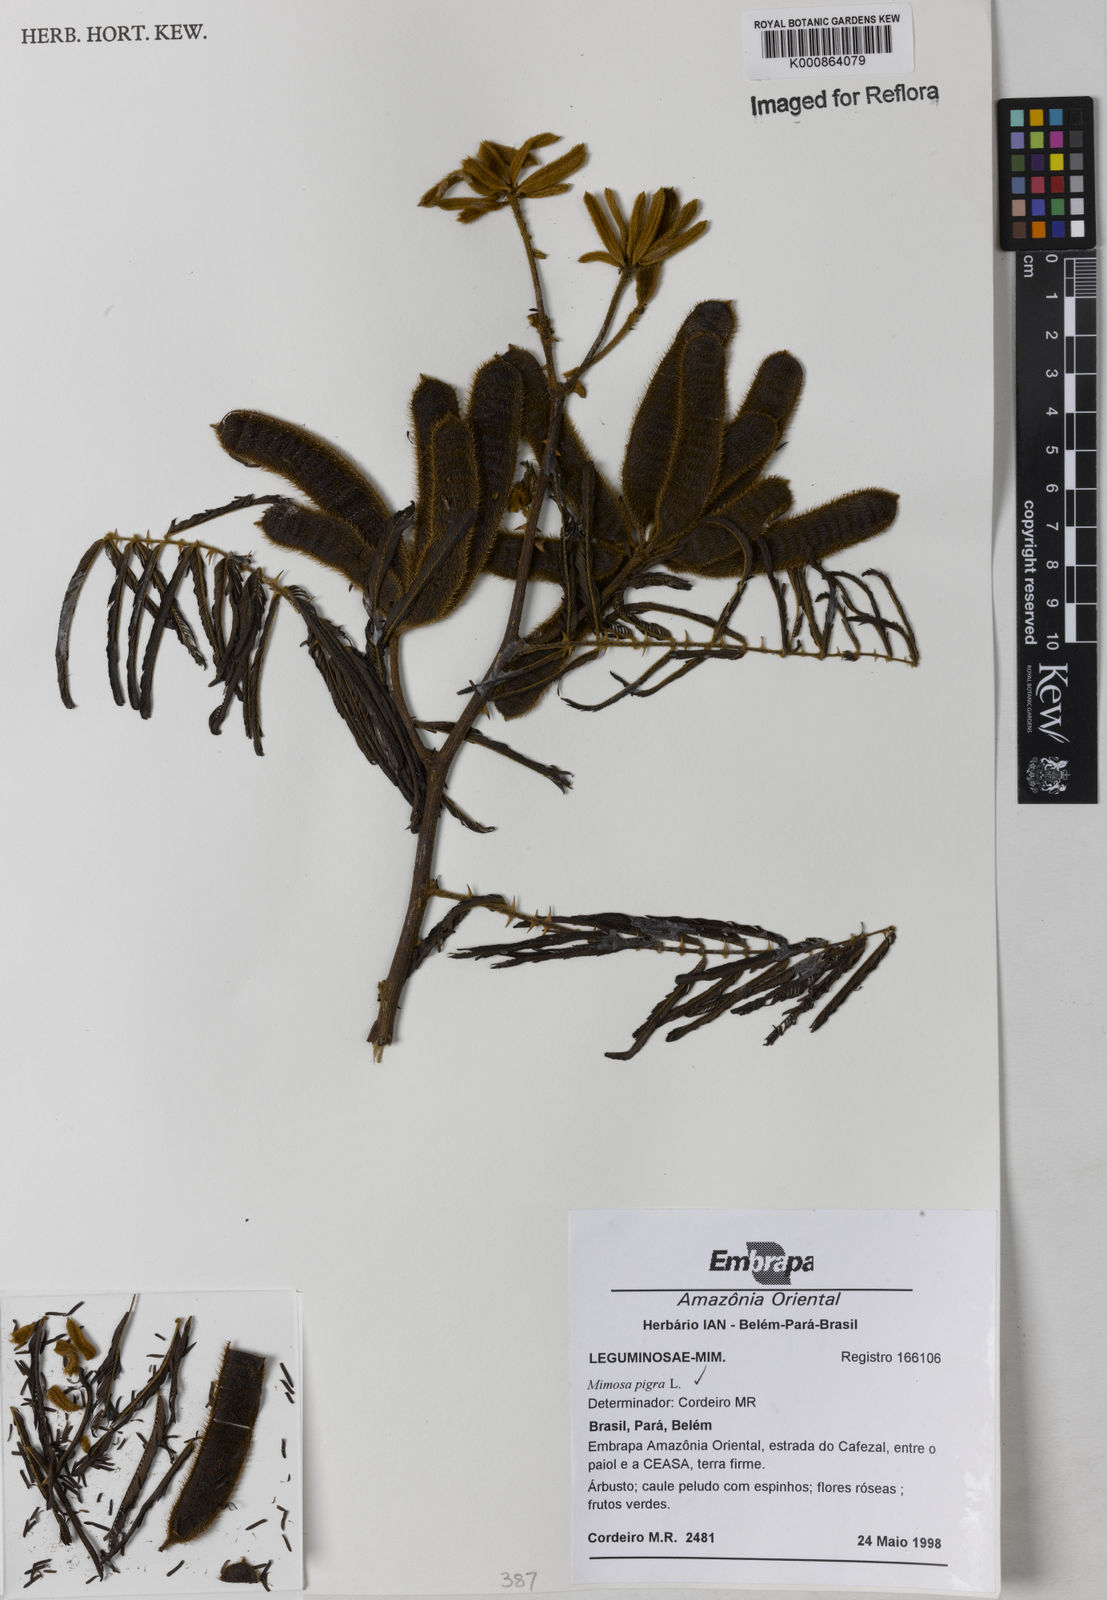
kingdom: Plantae
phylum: Tracheophyta
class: Magnoliopsida
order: Fabales
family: Fabaceae
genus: Mimosa
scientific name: Mimosa pigra
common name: Black mimosa
